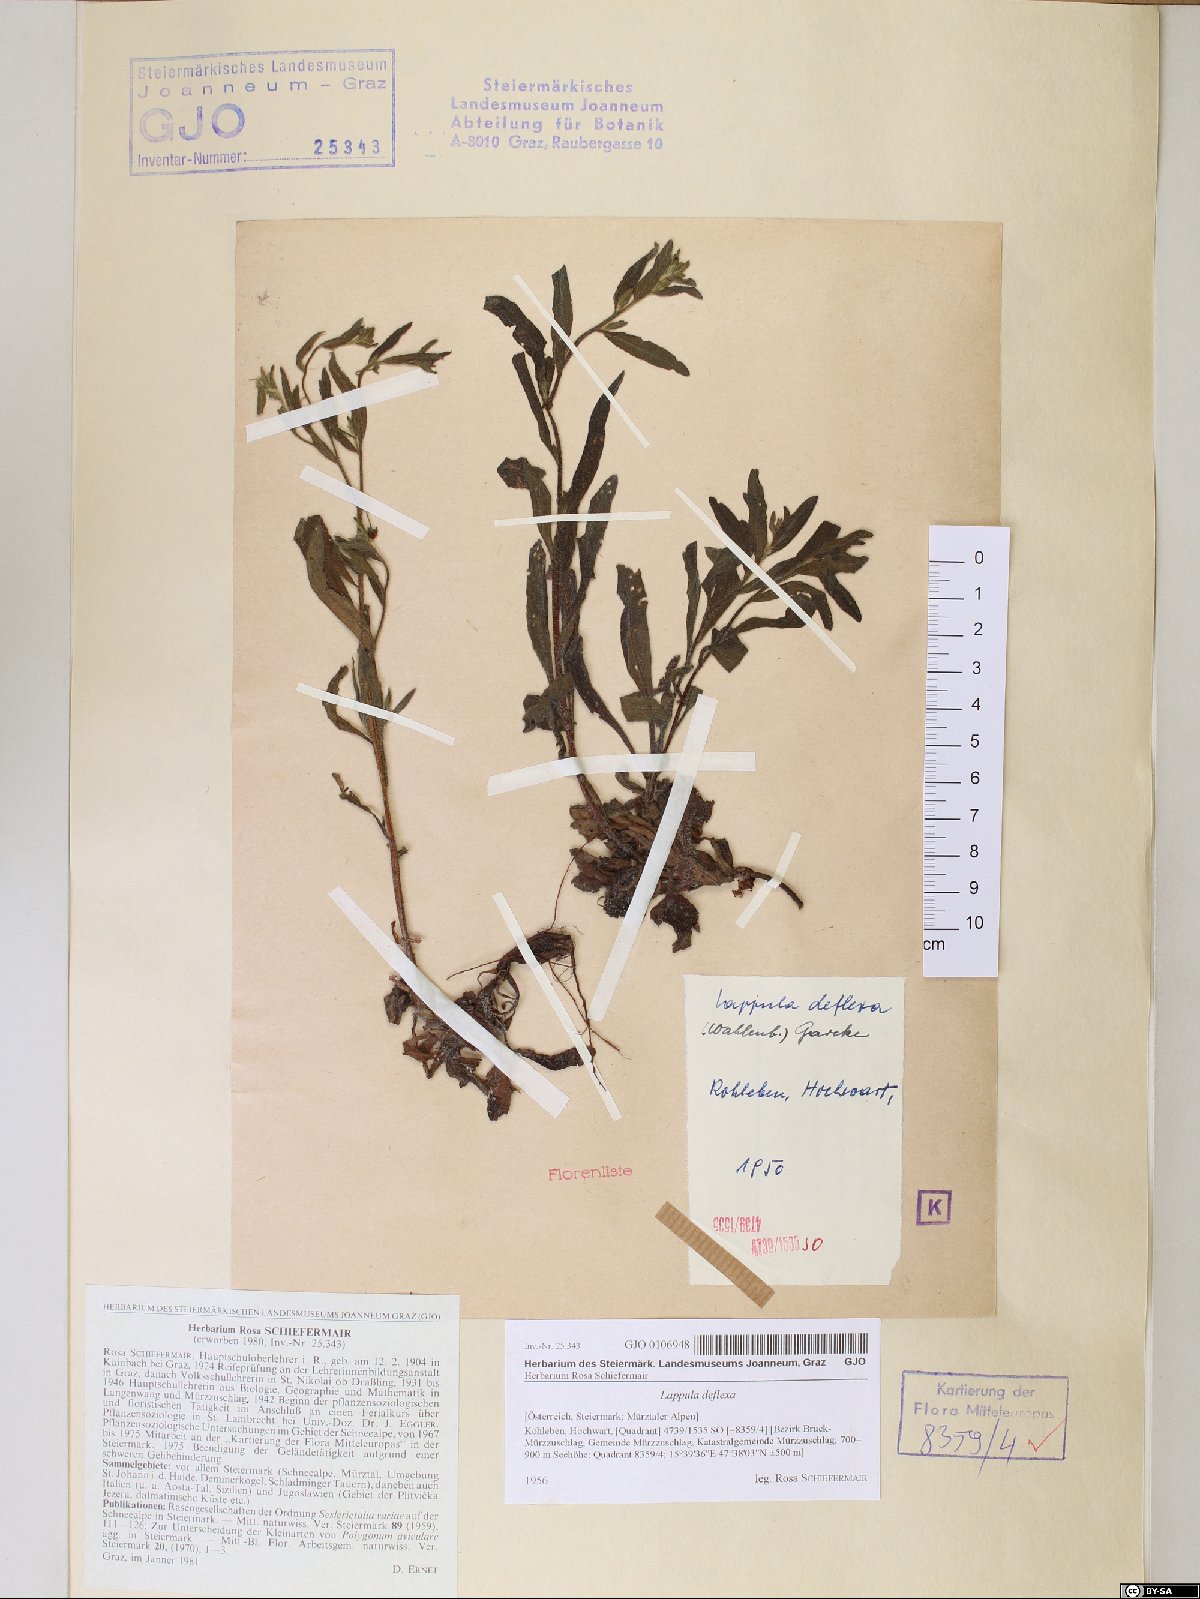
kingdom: Plantae
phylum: Tracheophyta
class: Magnoliopsida
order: Boraginales
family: Boraginaceae
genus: Hackelia
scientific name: Hackelia deflexa
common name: Nodding stickseed
